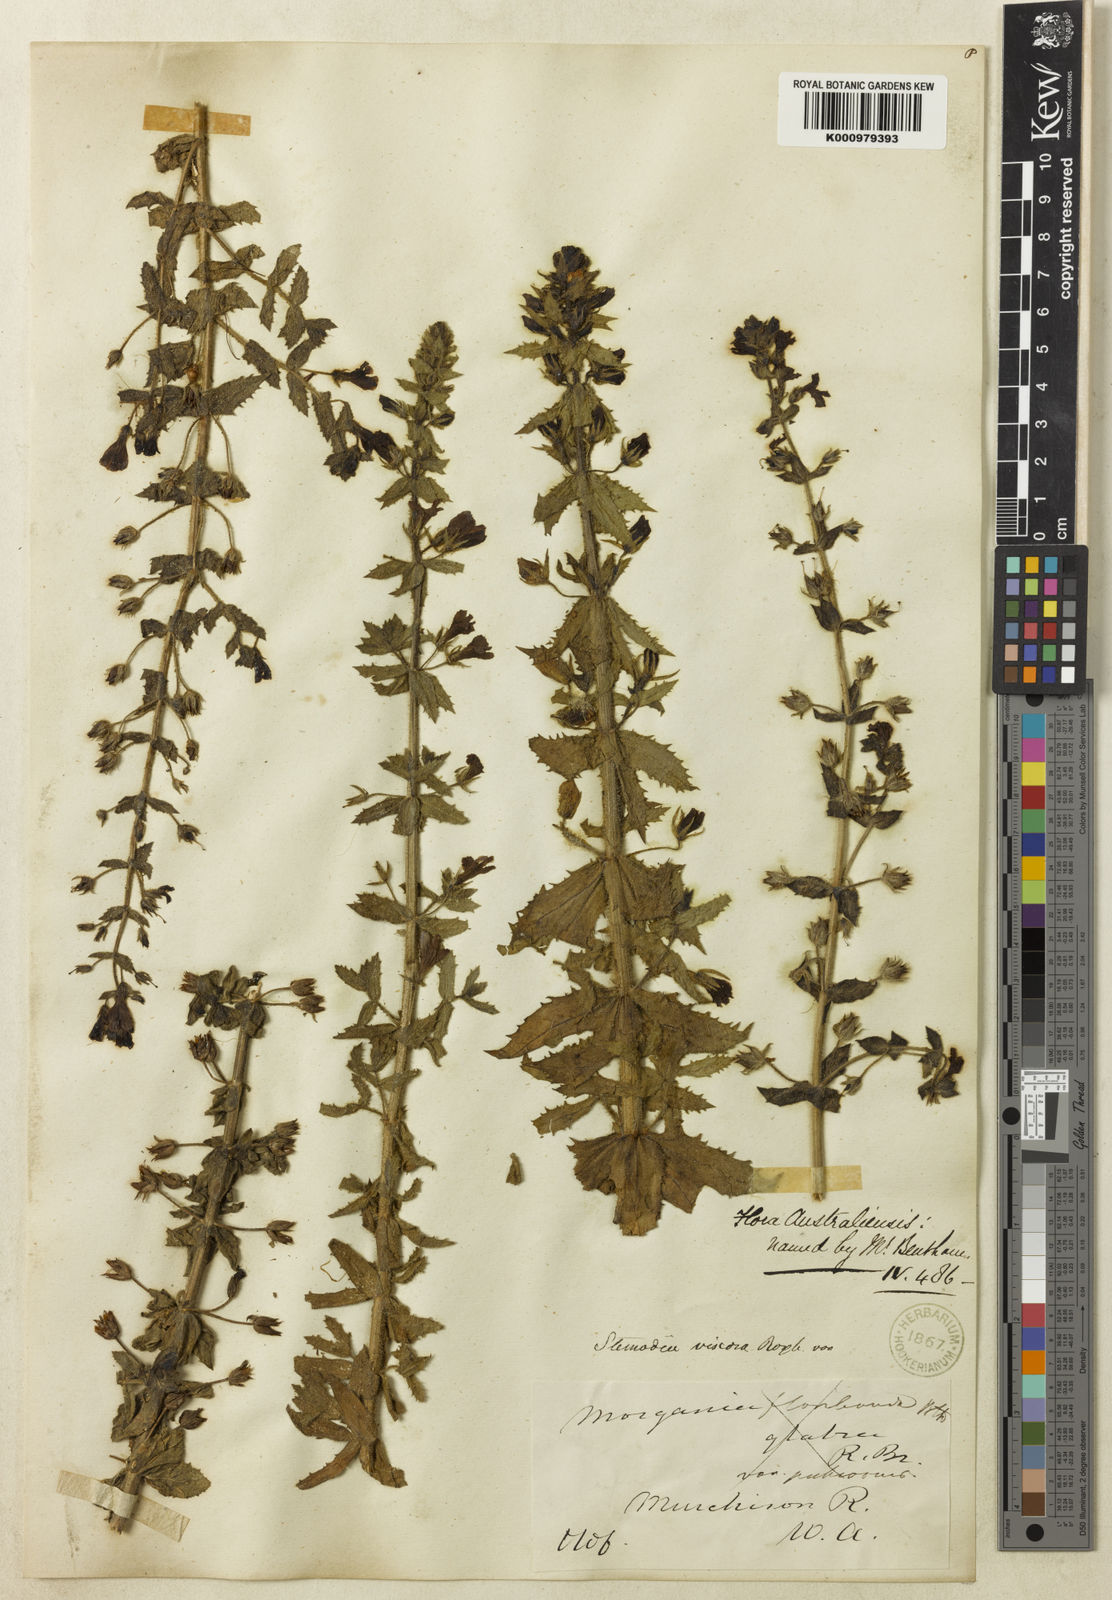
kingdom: Plantae
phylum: Tracheophyta
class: Magnoliopsida
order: Lamiales
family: Plantaginaceae
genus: Stemodia
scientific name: Stemodia viscosa
